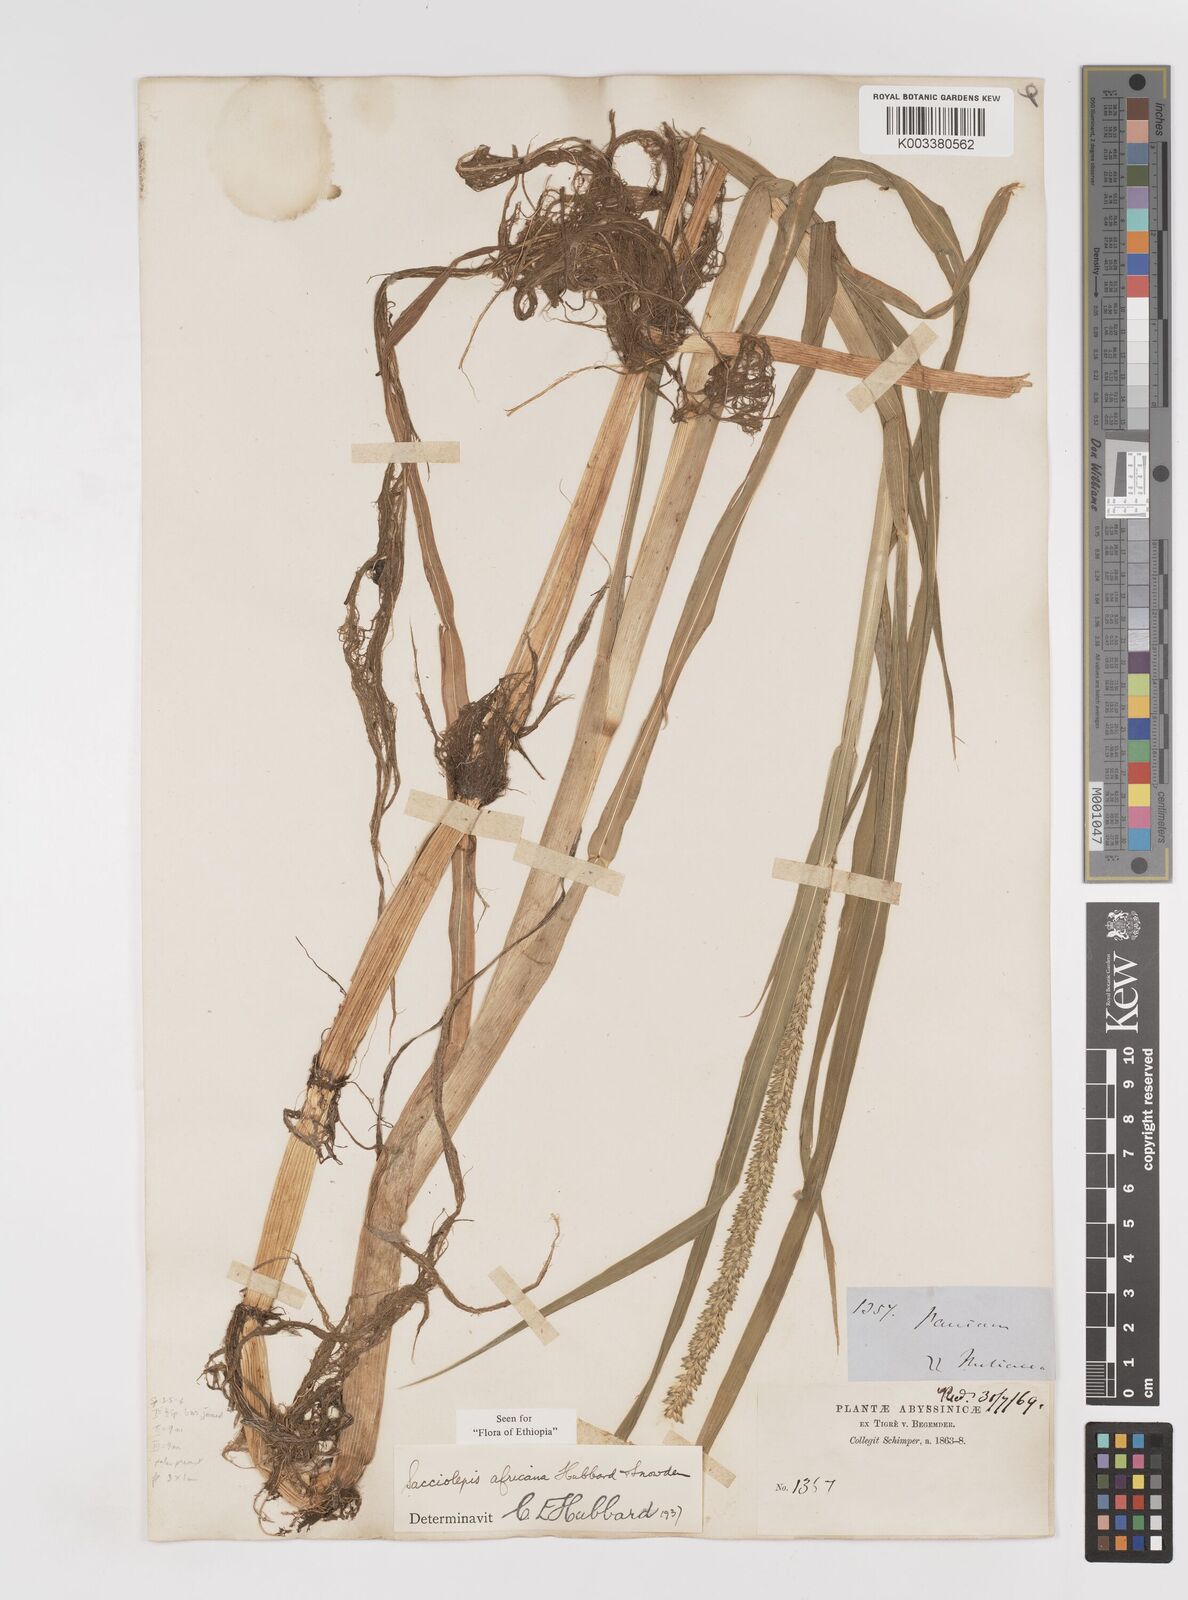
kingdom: Plantae
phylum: Tracheophyta
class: Liliopsida
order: Poales
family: Poaceae
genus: Sacciolepis
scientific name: Sacciolepis africana
